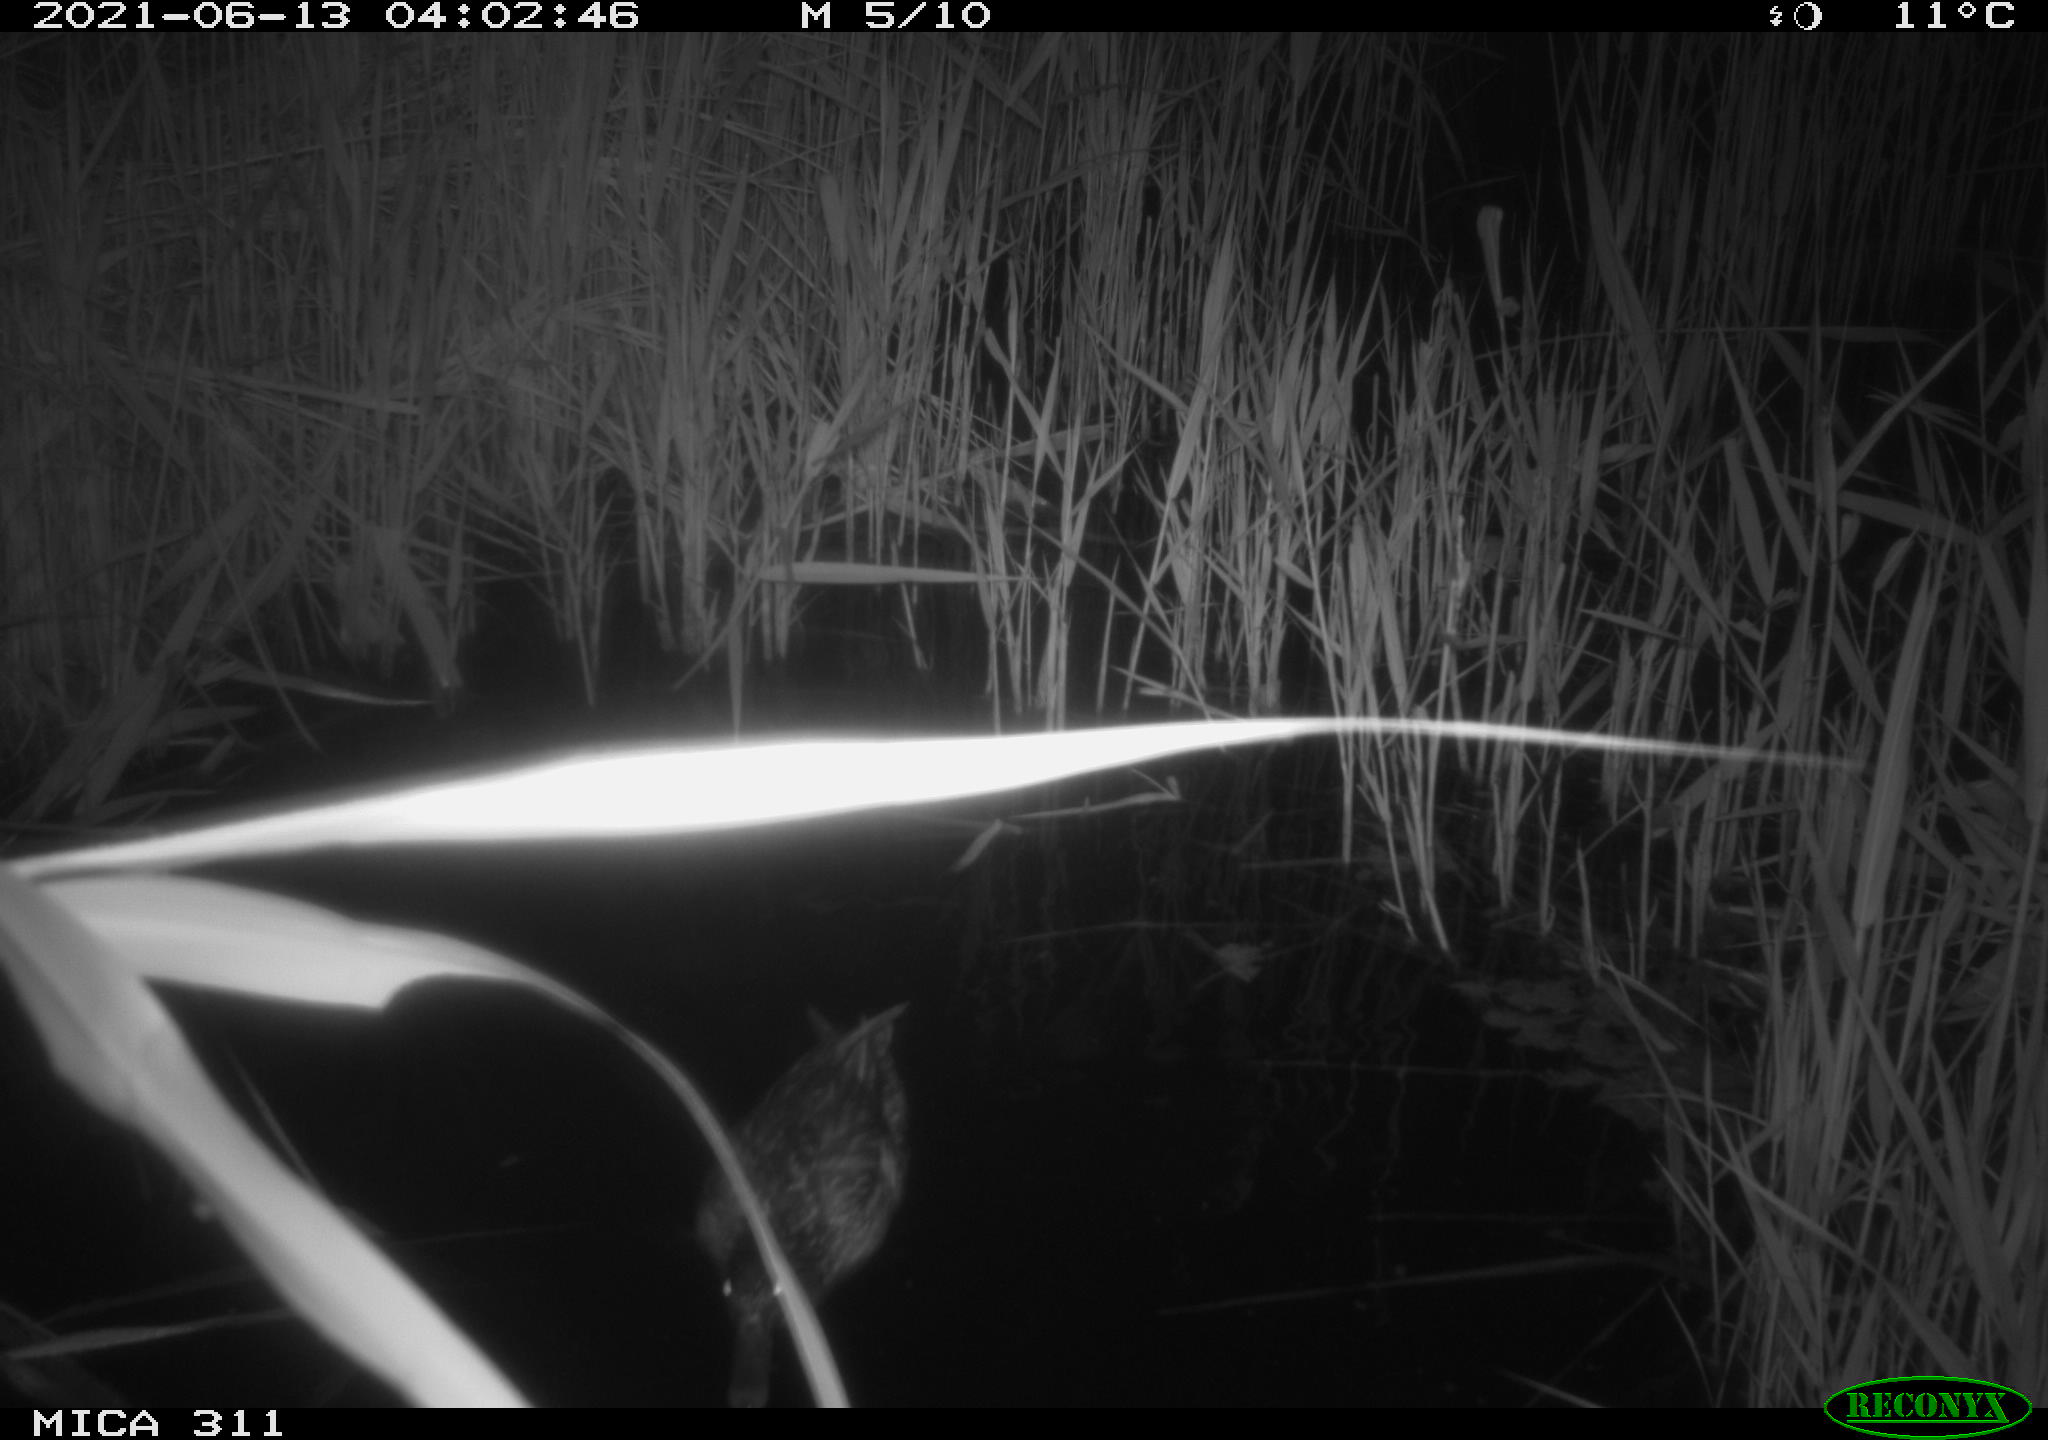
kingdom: Animalia
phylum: Chordata
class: Aves
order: Anseriformes
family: Anatidae
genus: Anas
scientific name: Anas
